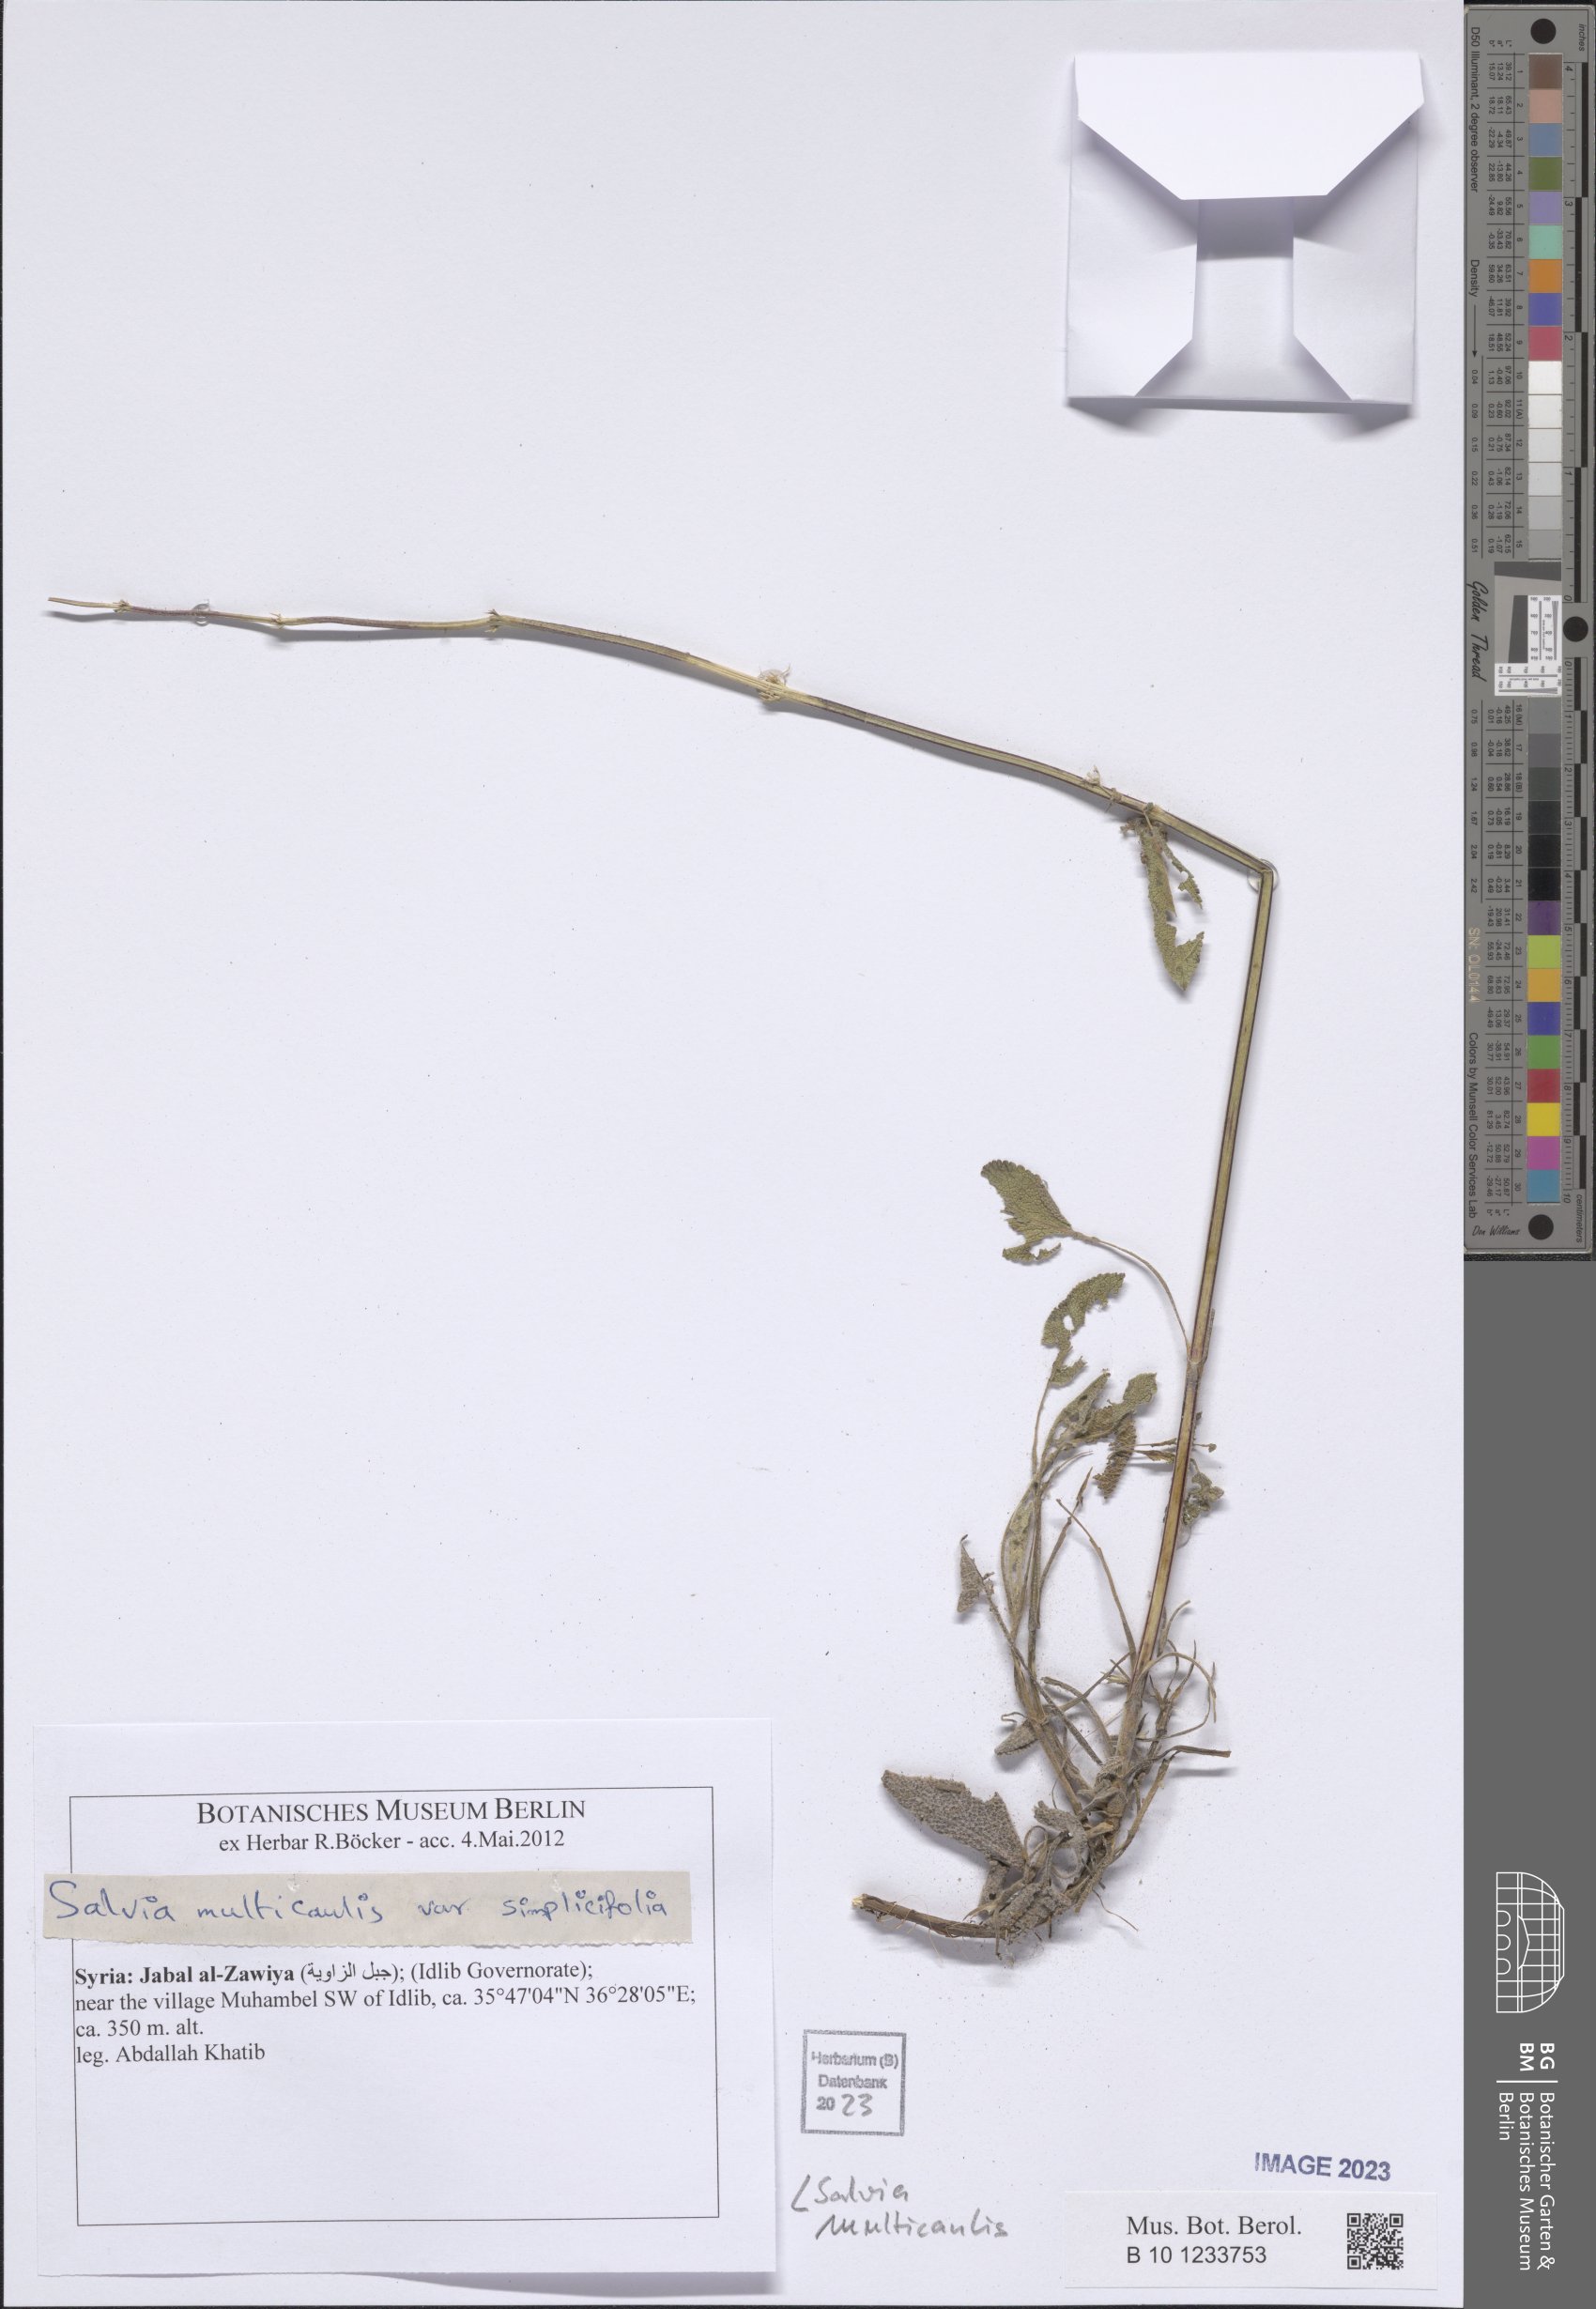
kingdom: Plantae
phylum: Tracheophyta
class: Magnoliopsida
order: Lamiales
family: Lamiaceae
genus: Salvia
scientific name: Salvia multicaulis
